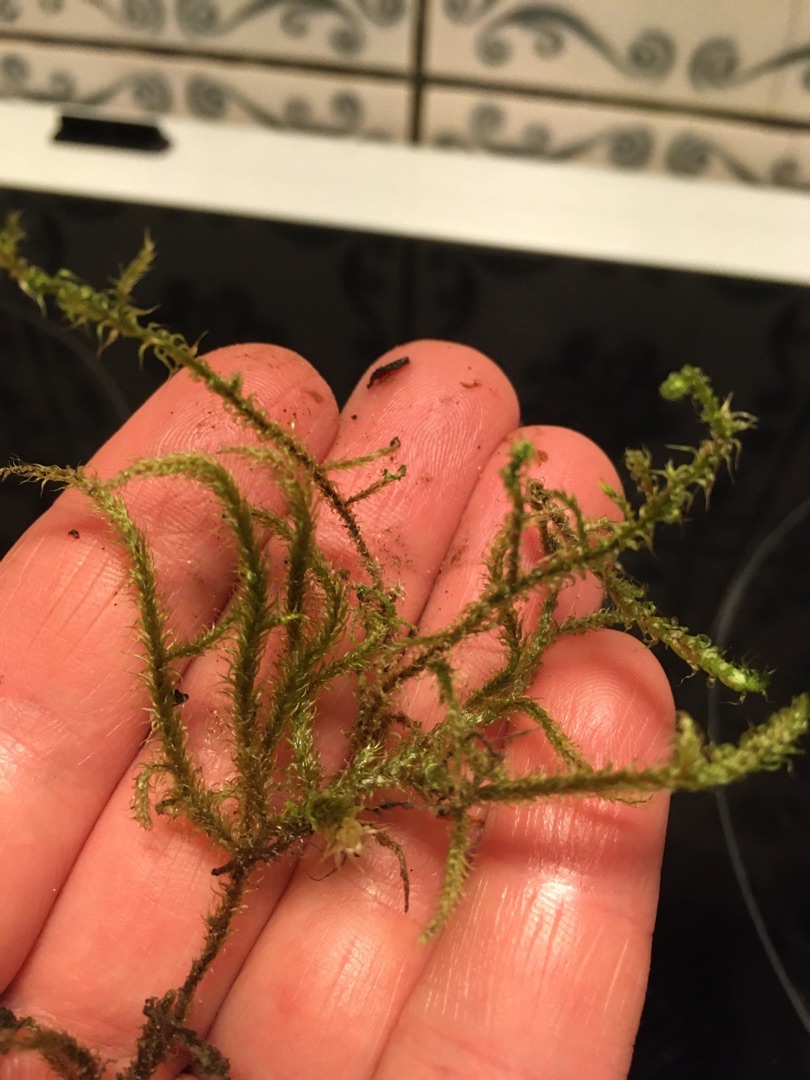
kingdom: Plantae
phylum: Bryophyta
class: Bryopsida
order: Hypnales
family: Hylocomiaceae
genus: Rhytidiadelphus
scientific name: Rhytidiadelphus loreus
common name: Ulvefod-kransemos
